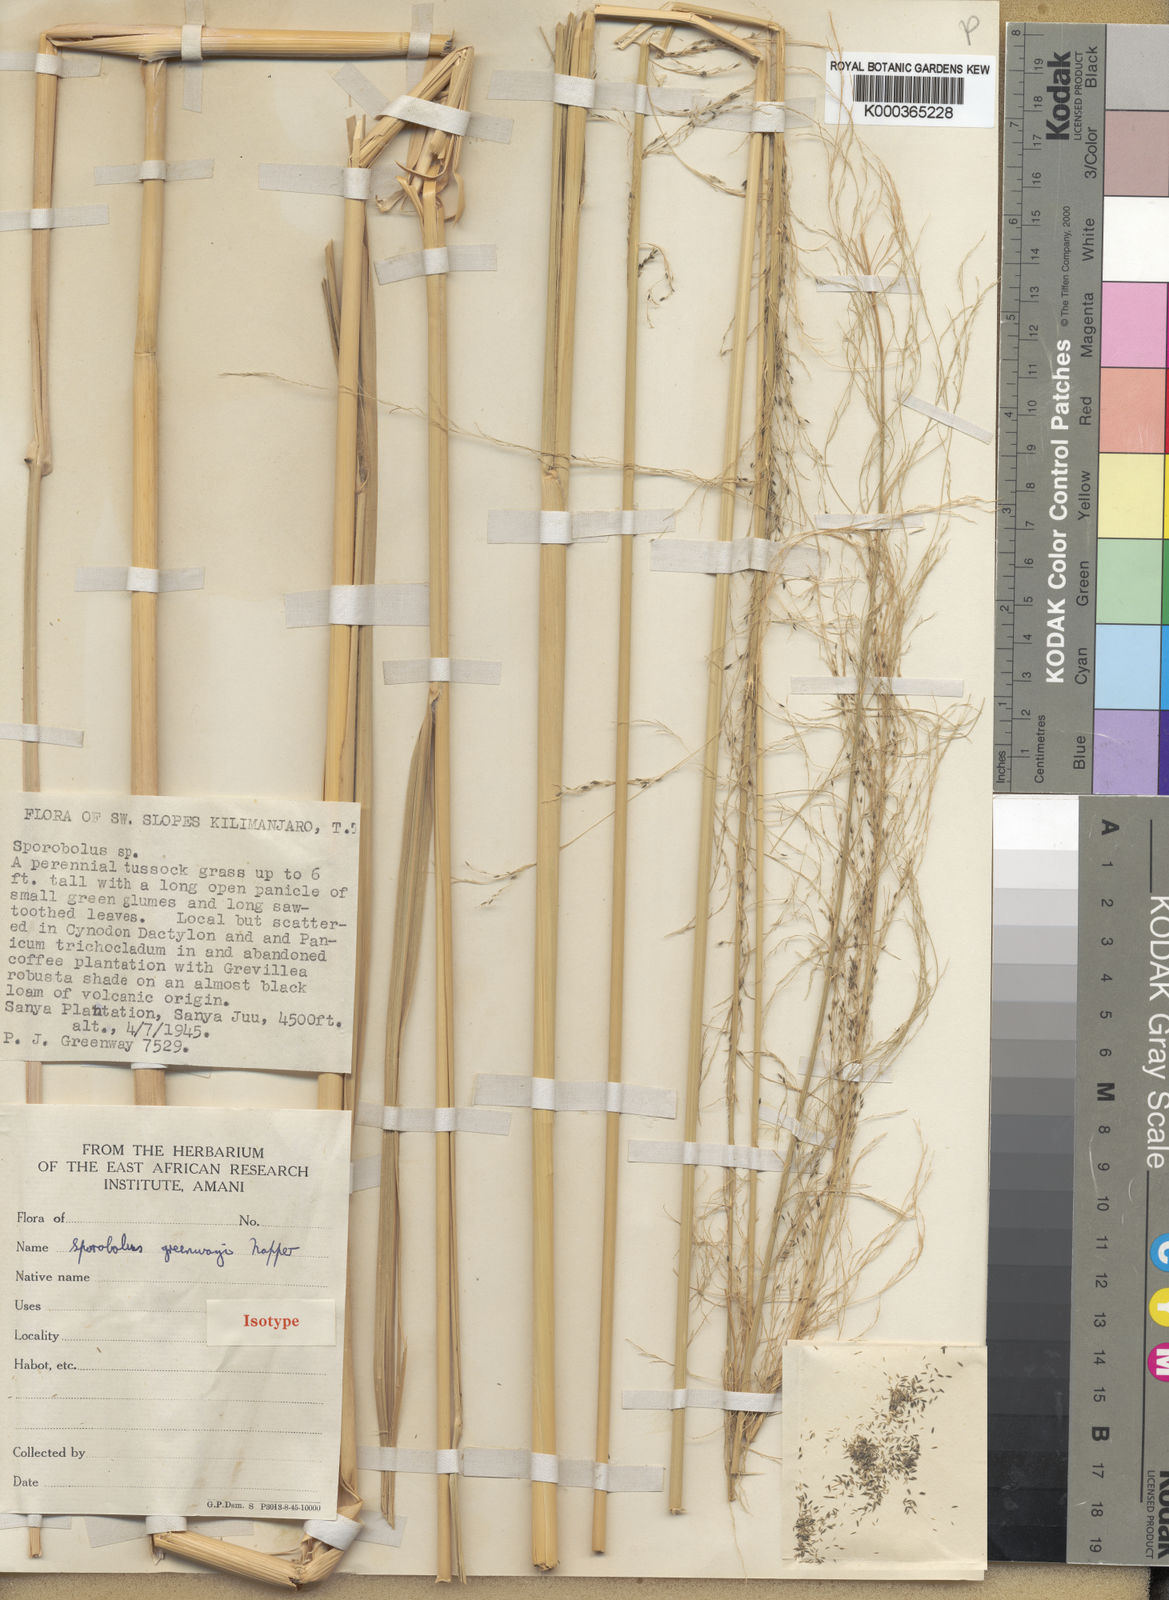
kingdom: Plantae
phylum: Tracheophyta
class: Liliopsida
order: Poales
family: Poaceae
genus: Sporobolus
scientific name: Sporobolus macranthelus
